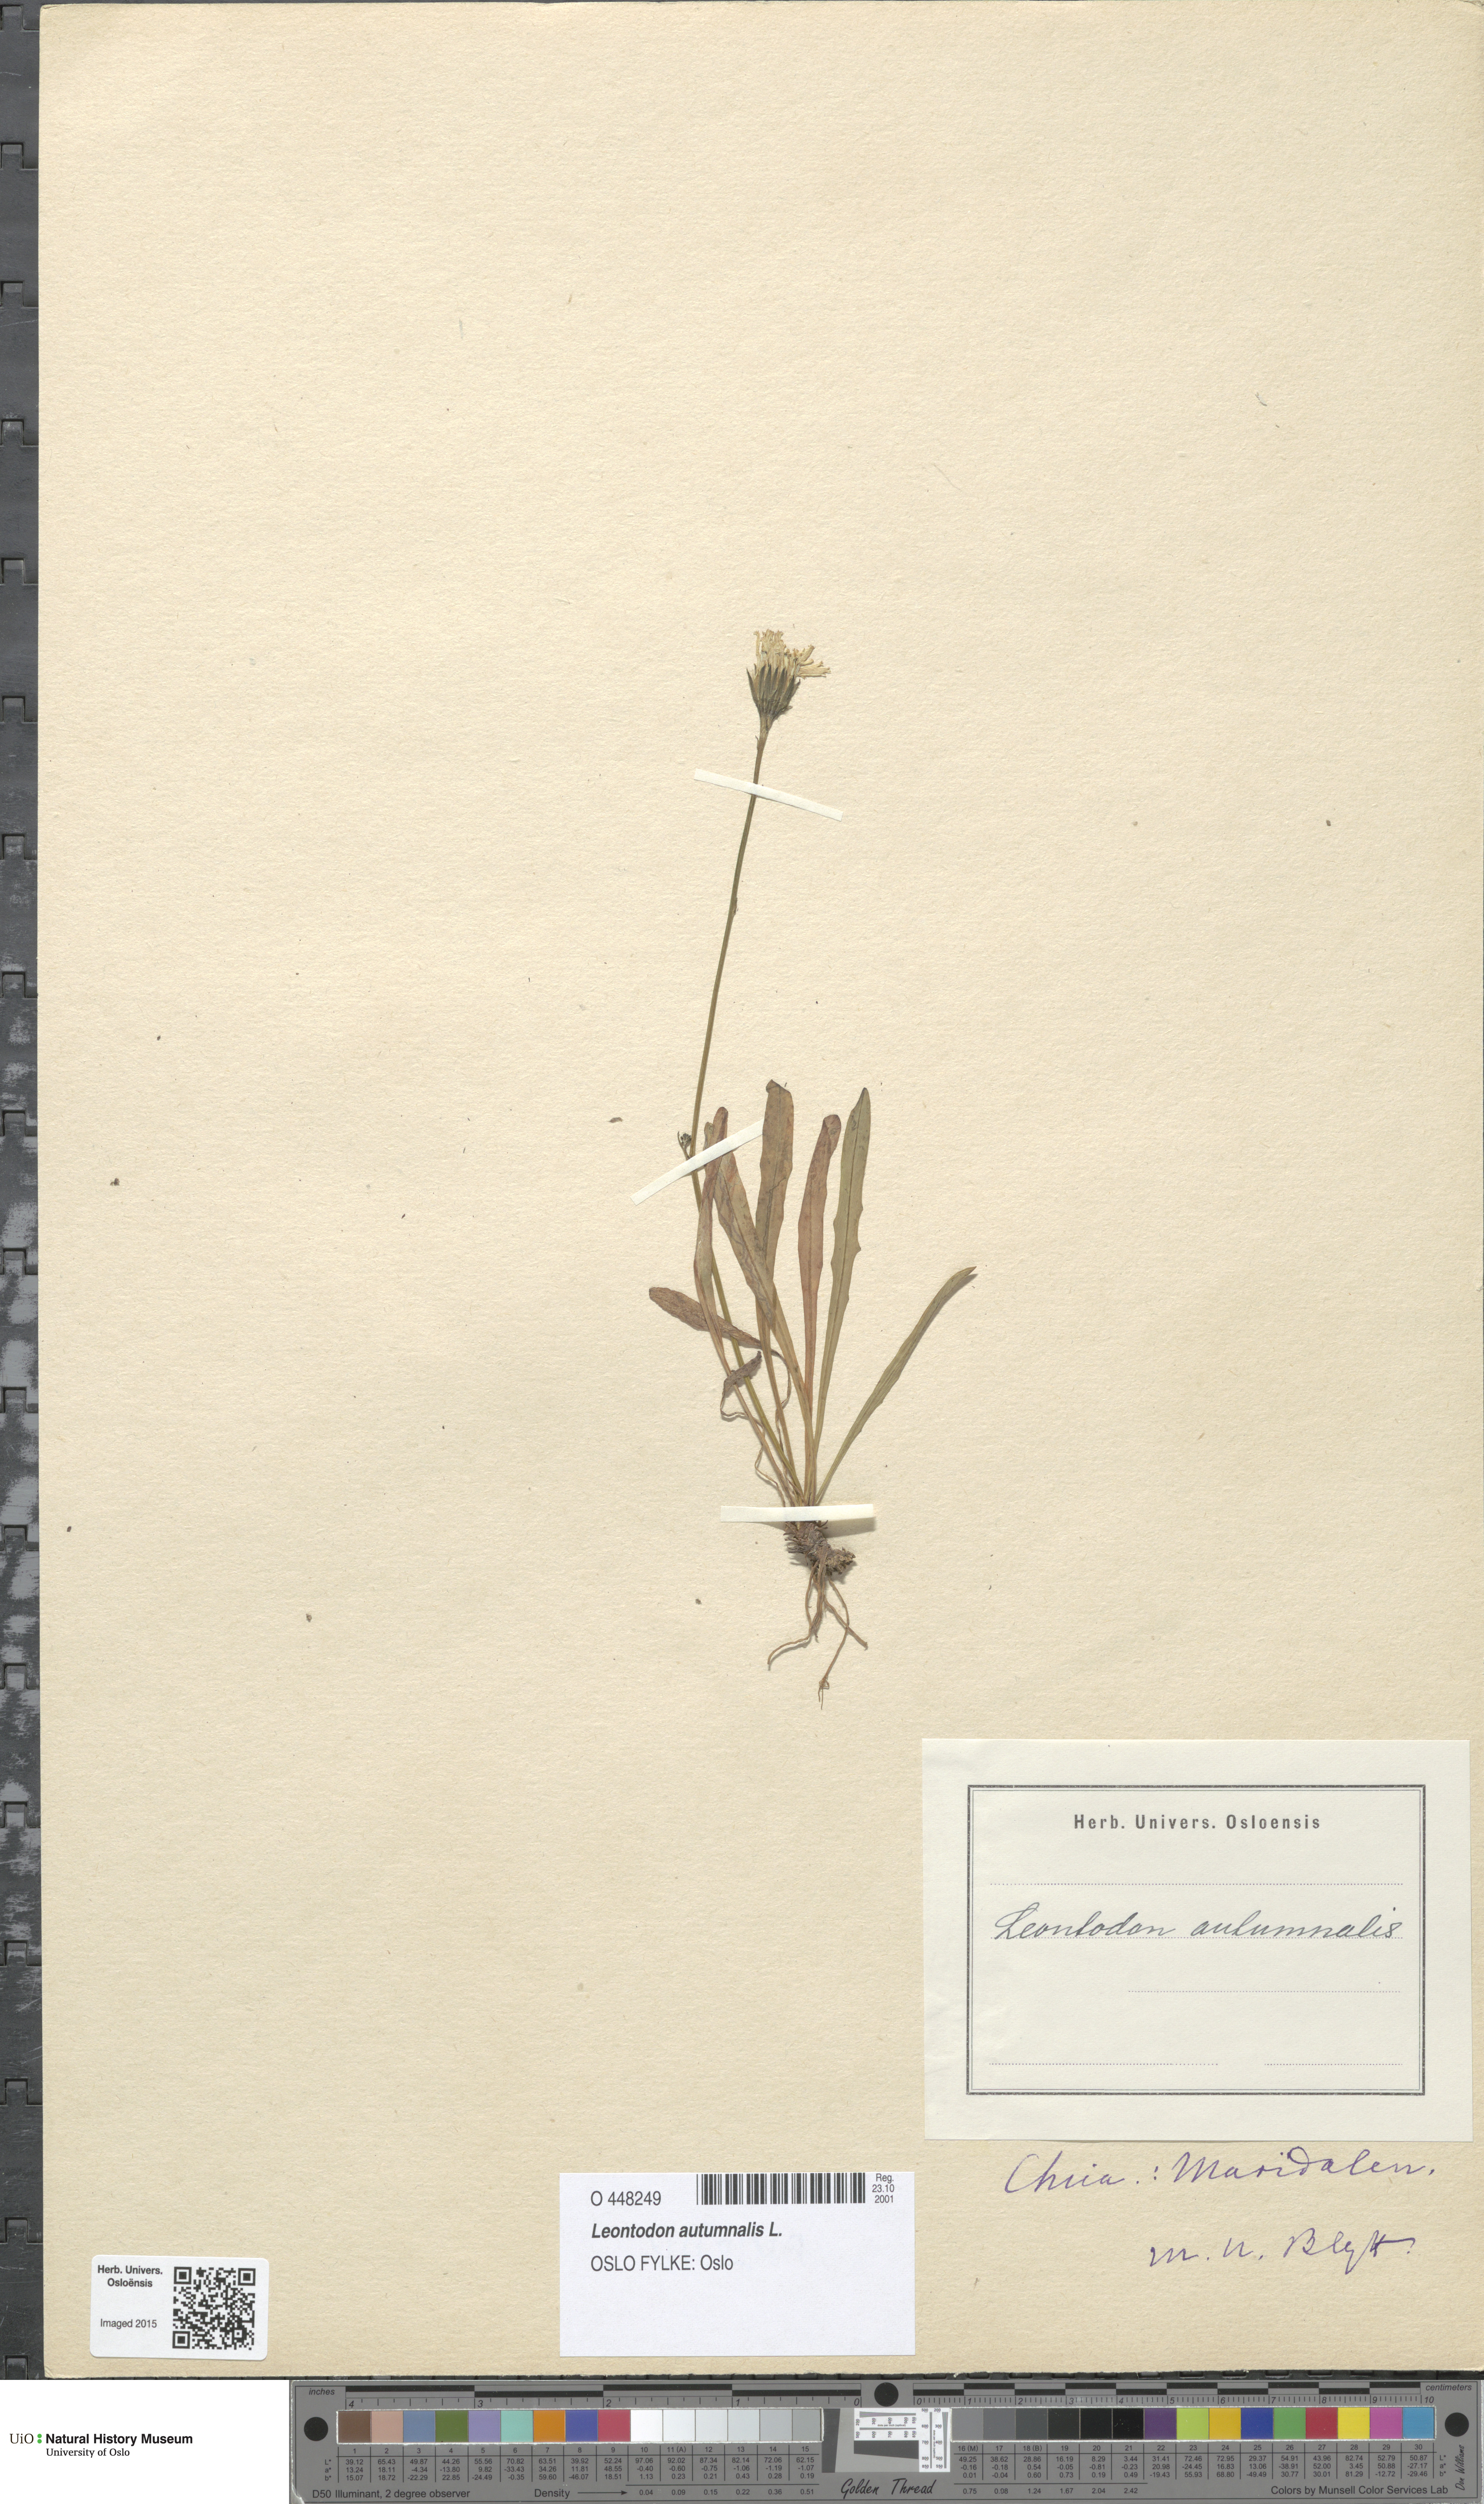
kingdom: Plantae
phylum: Tracheophyta
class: Magnoliopsida
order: Asterales
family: Asteraceae
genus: Scorzoneroides
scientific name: Scorzoneroides autumnalis
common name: Autumn hawkbit
